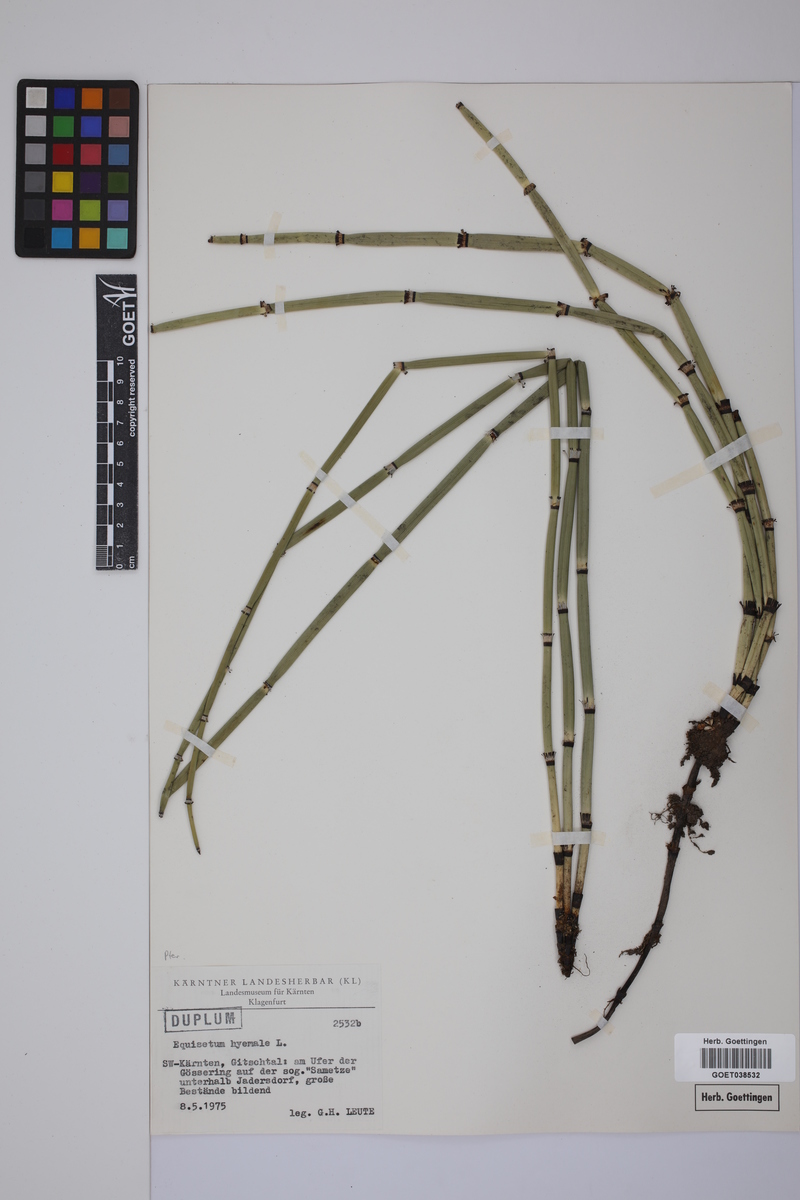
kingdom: Plantae
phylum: Tracheophyta
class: Polypodiopsida
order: Equisetales
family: Equisetaceae
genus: Equisetum
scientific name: Equisetum hyemale
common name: Rough horsetail
